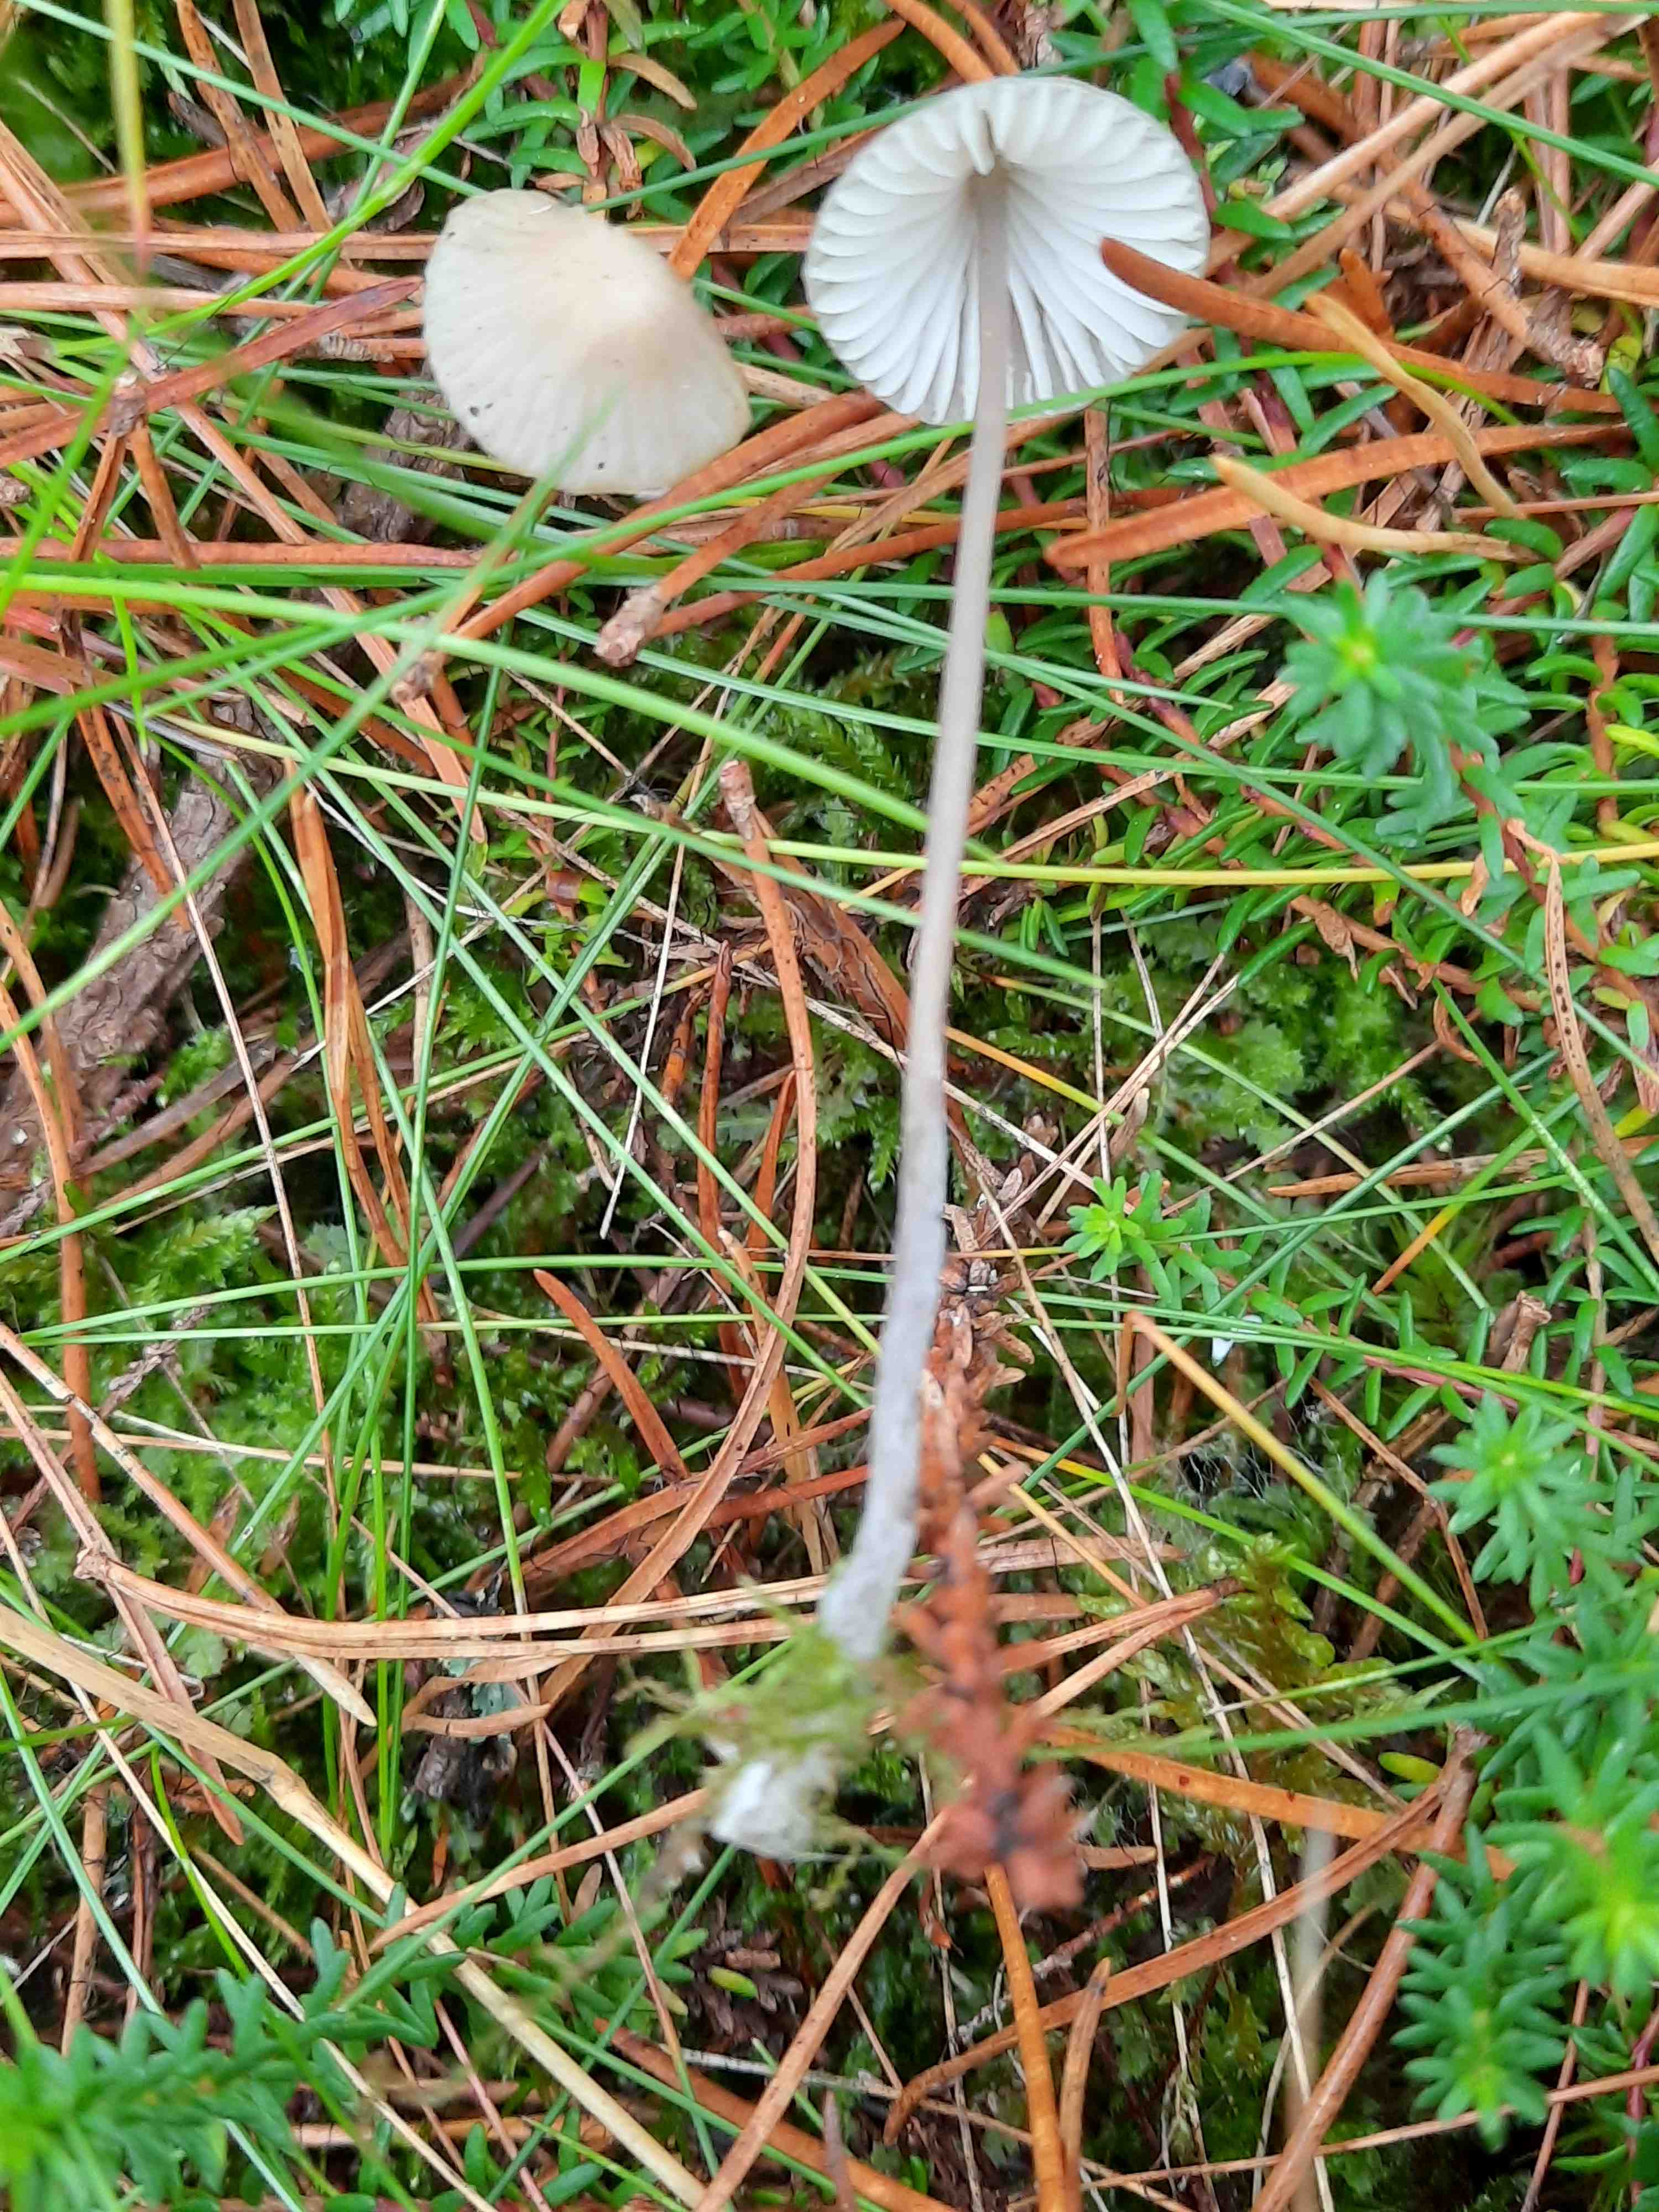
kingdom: Fungi
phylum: Basidiomycota
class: Agaricomycetes
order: Agaricales
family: Mycenaceae
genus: Mycena
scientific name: Mycena galopus
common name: hvidmælket huesvamp
